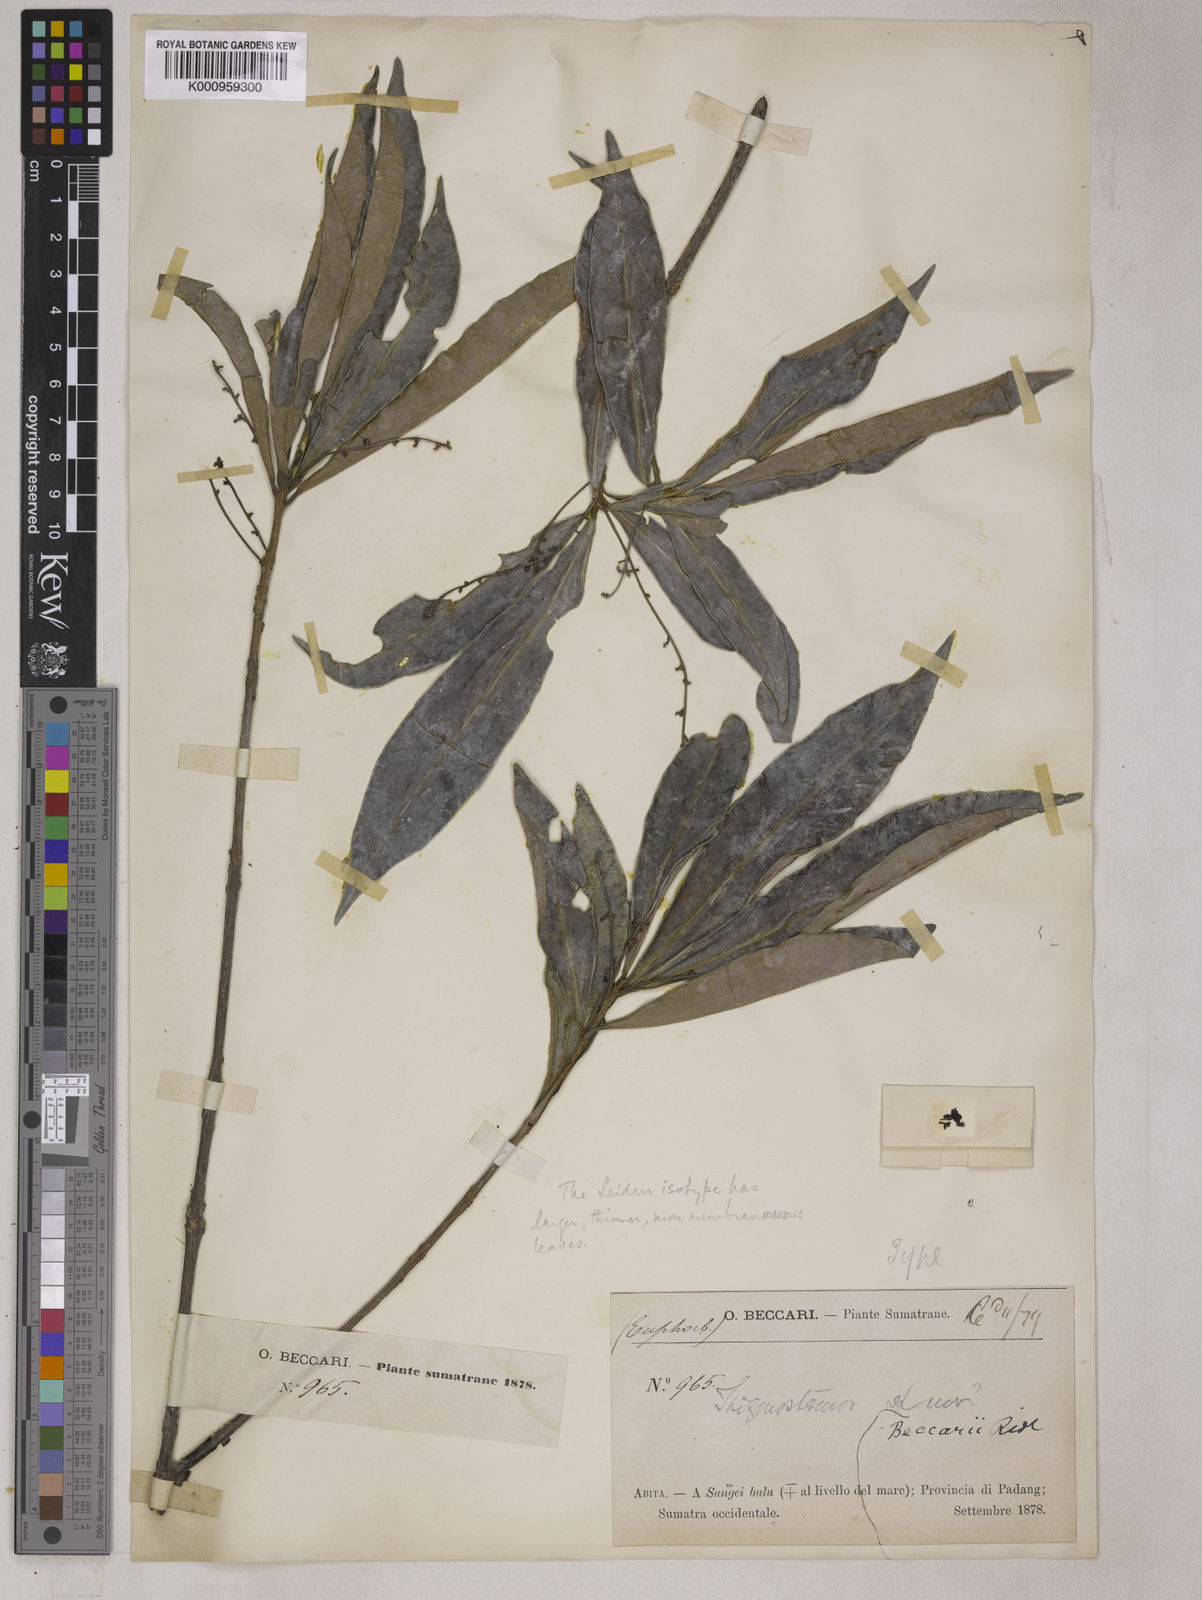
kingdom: Plantae
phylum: Tracheophyta
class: Magnoliopsida
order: Malpighiales
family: Euphorbiaceae
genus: Trigonostemon
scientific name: Trigonostemon beccarii
